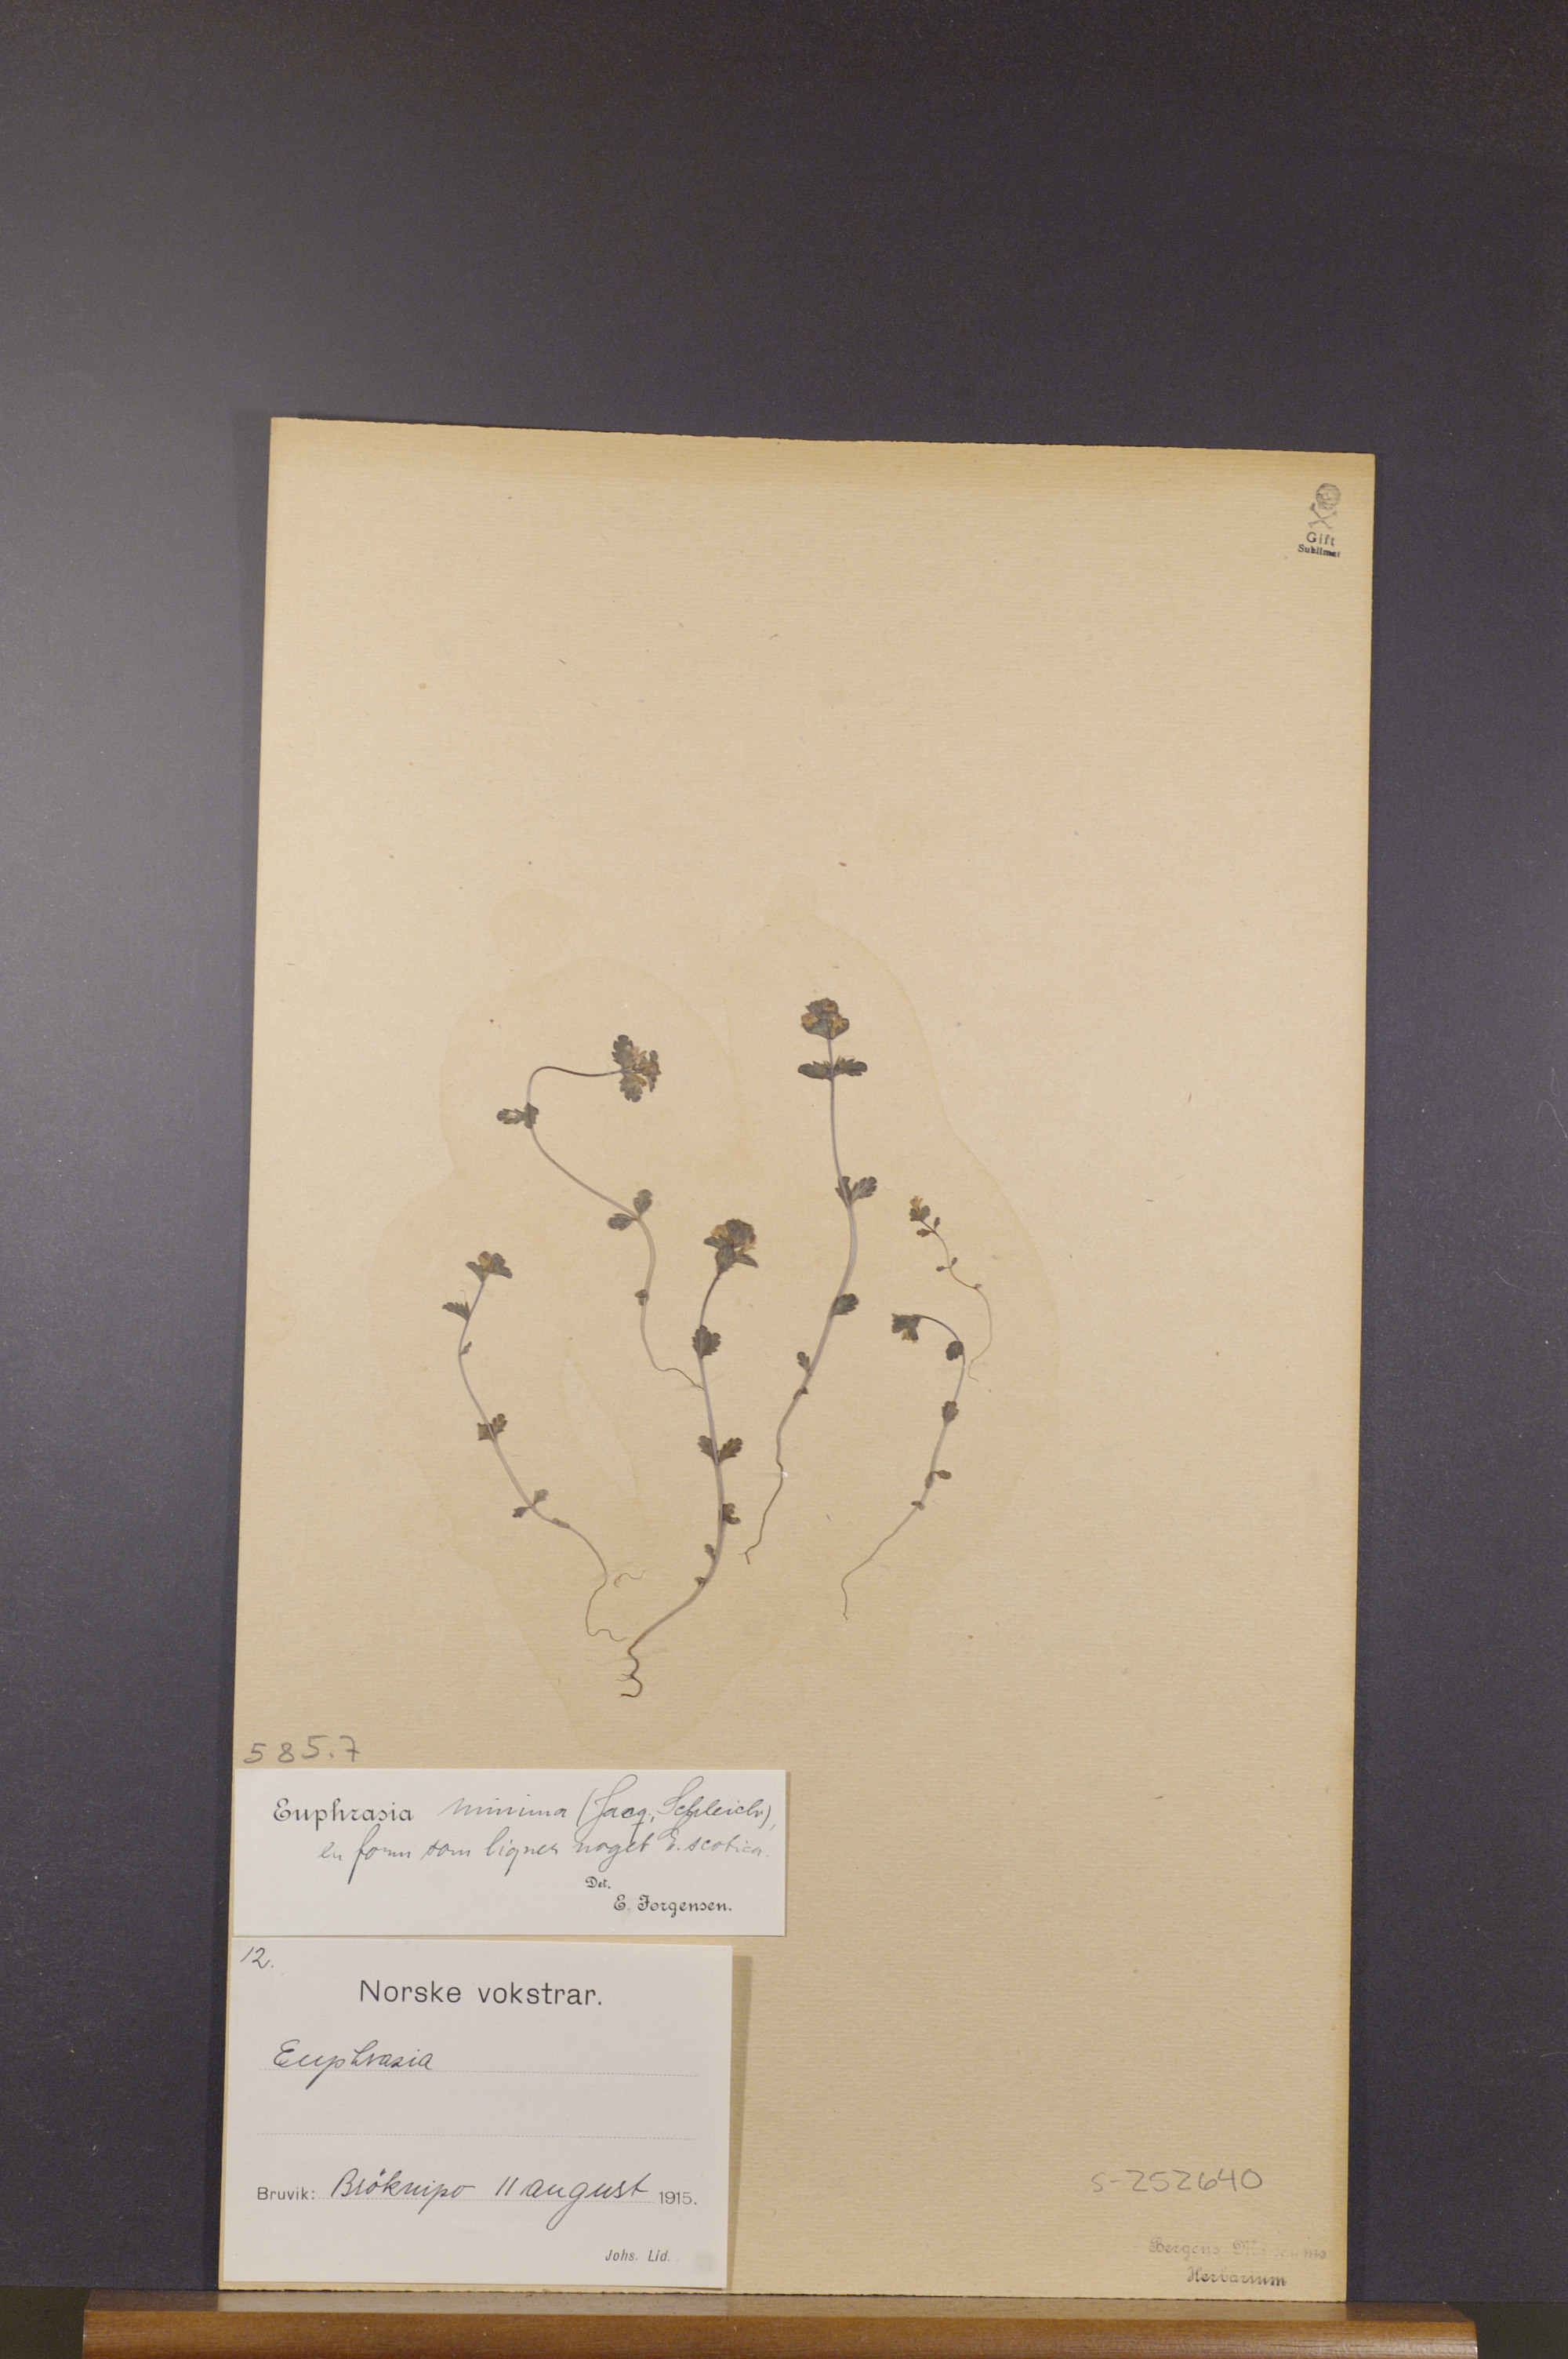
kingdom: Plantae
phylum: Tracheophyta
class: Magnoliopsida
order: Lamiales
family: Orobanchaceae
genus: Euphrasia
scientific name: Euphrasia minima
